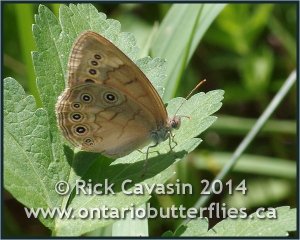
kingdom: Animalia
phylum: Arthropoda
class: Insecta
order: Lepidoptera
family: Nymphalidae
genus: Lethe
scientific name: Lethe eurydice
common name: Eyed Brown
